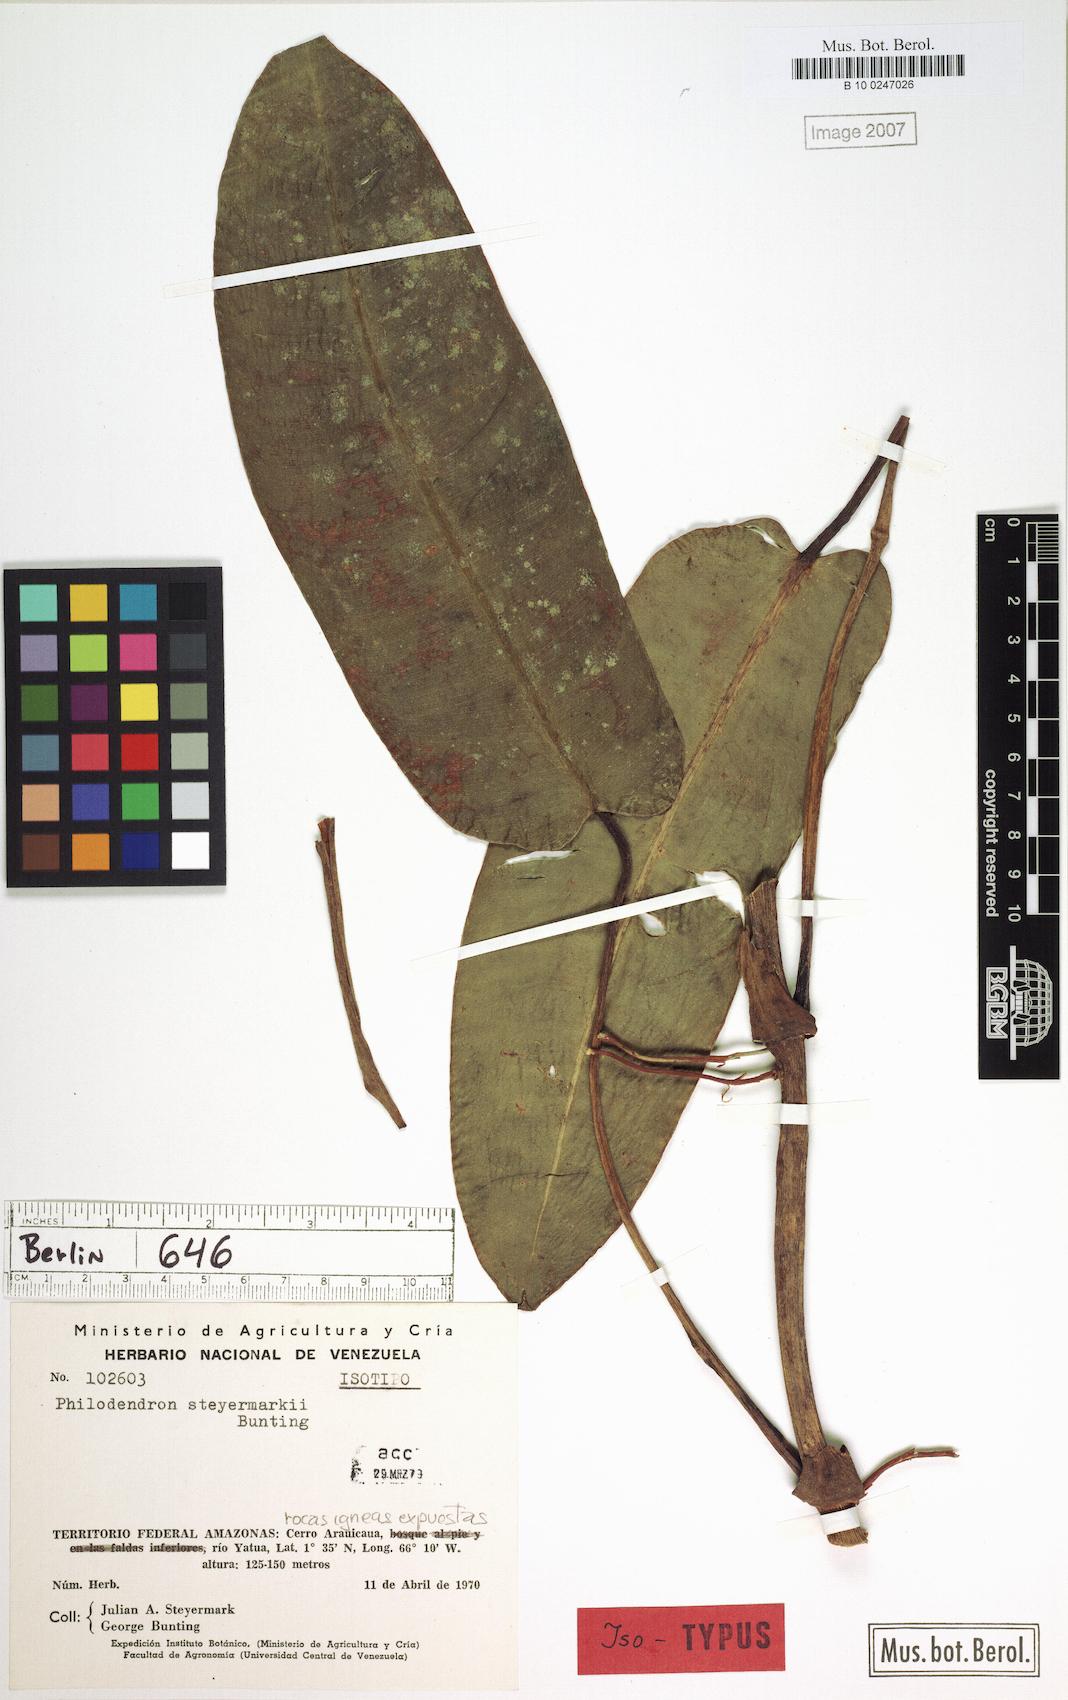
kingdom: Plantae
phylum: Tracheophyta
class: Liliopsida
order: Alismatales
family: Araceae
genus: Philodendron
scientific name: Philodendron steyermarkii
